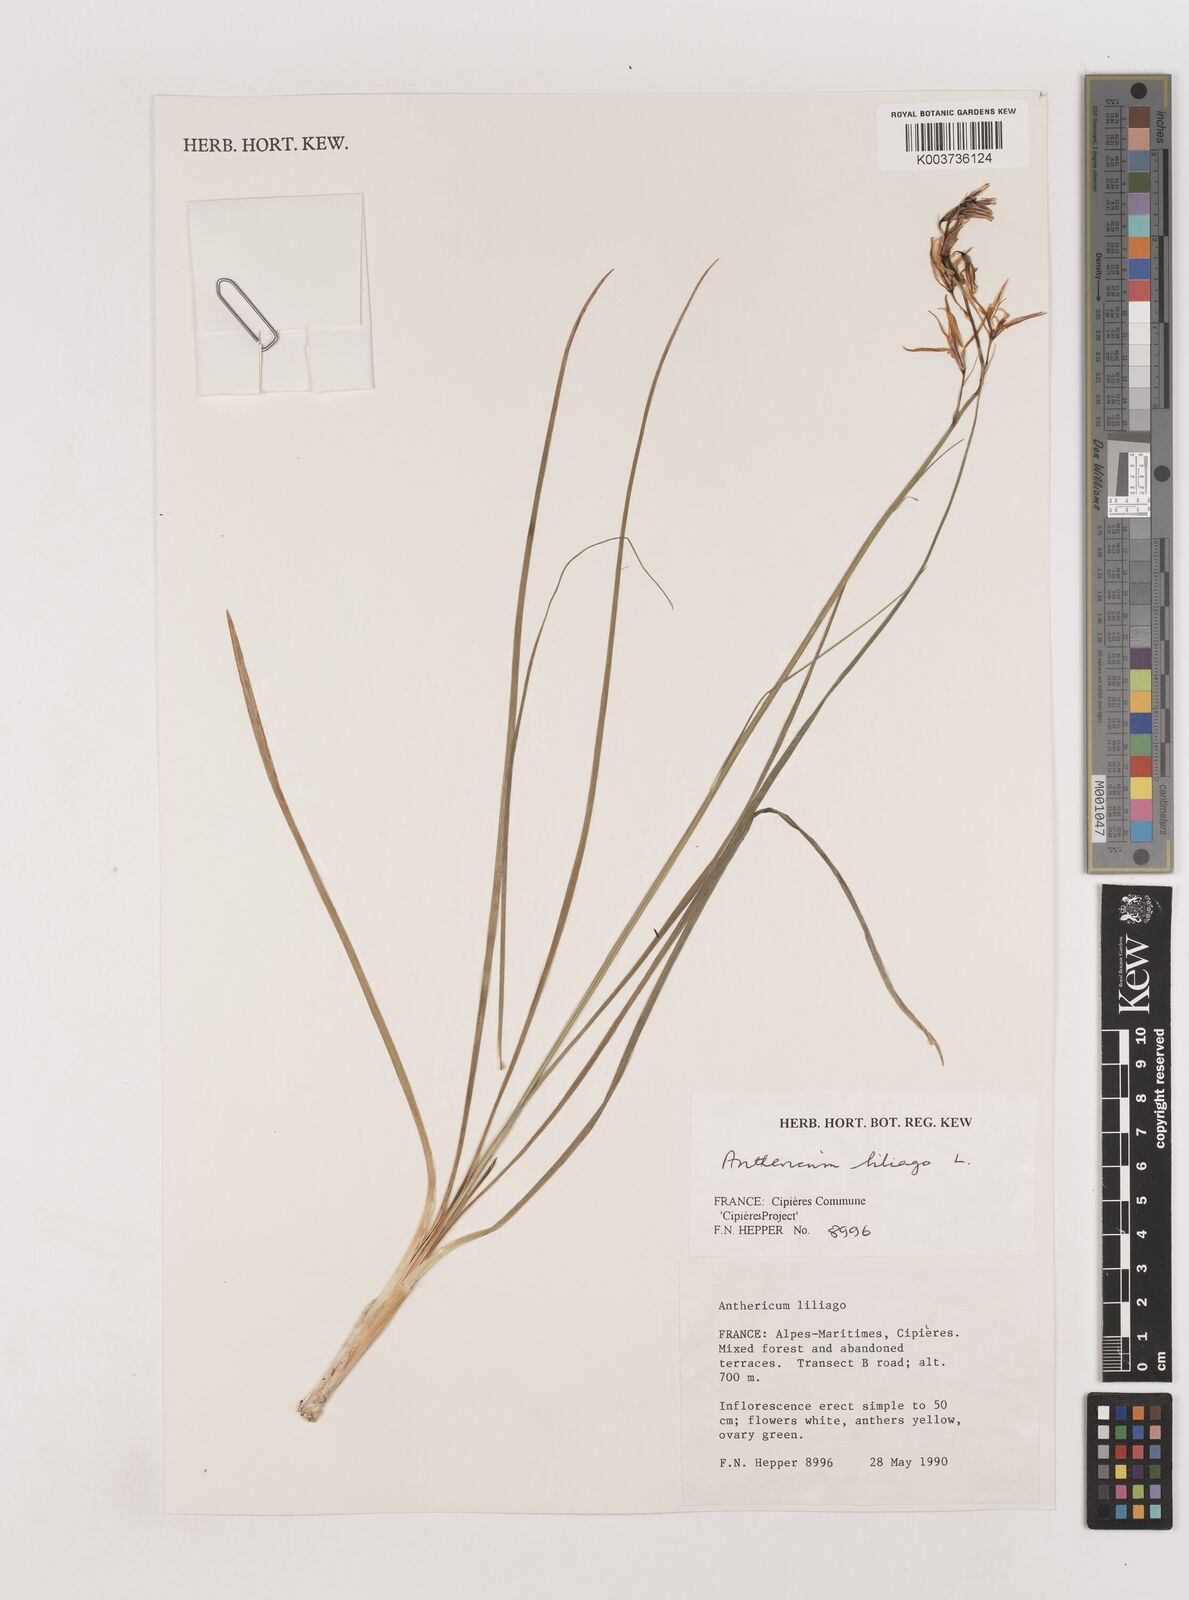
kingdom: Plantae
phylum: Tracheophyta
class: Liliopsida
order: Asparagales
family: Asparagaceae
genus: Anthericum
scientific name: Anthericum liliago
